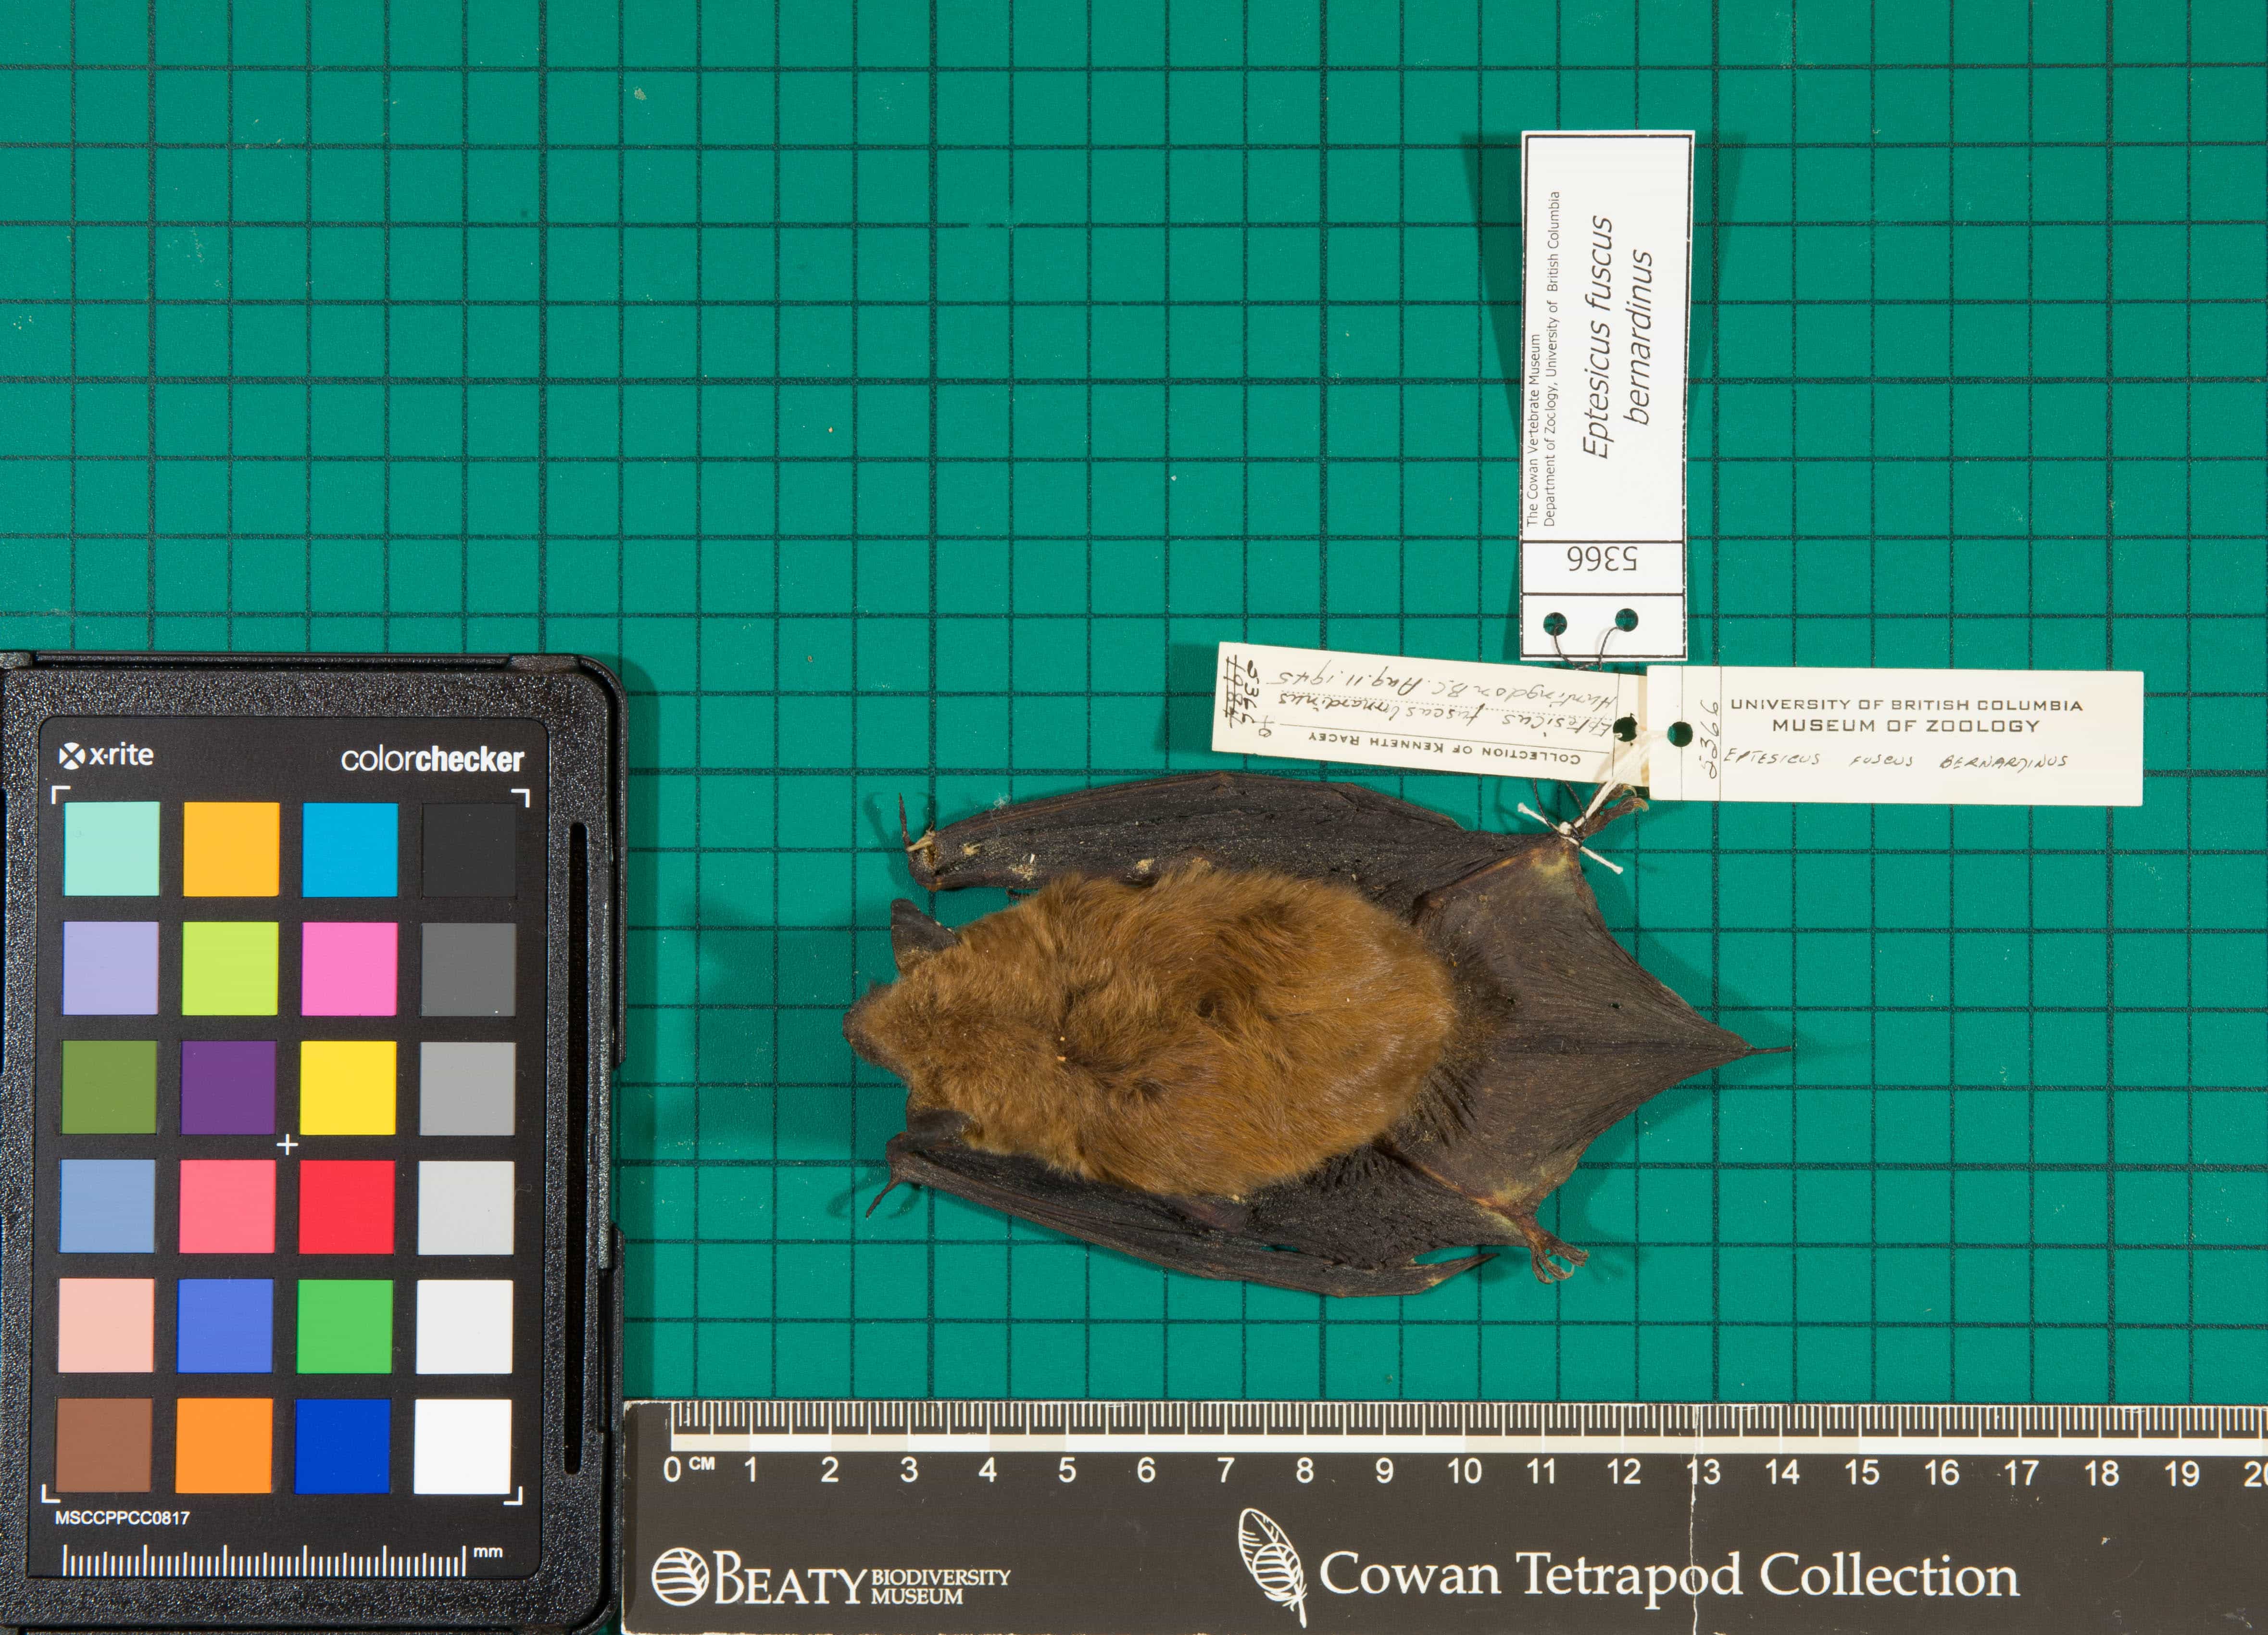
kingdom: Animalia
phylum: Chordata
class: Mammalia
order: Chiroptera
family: Vespertilionidae
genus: Eptesicus
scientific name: Eptesicus fuscus
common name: Big Brown Bat
